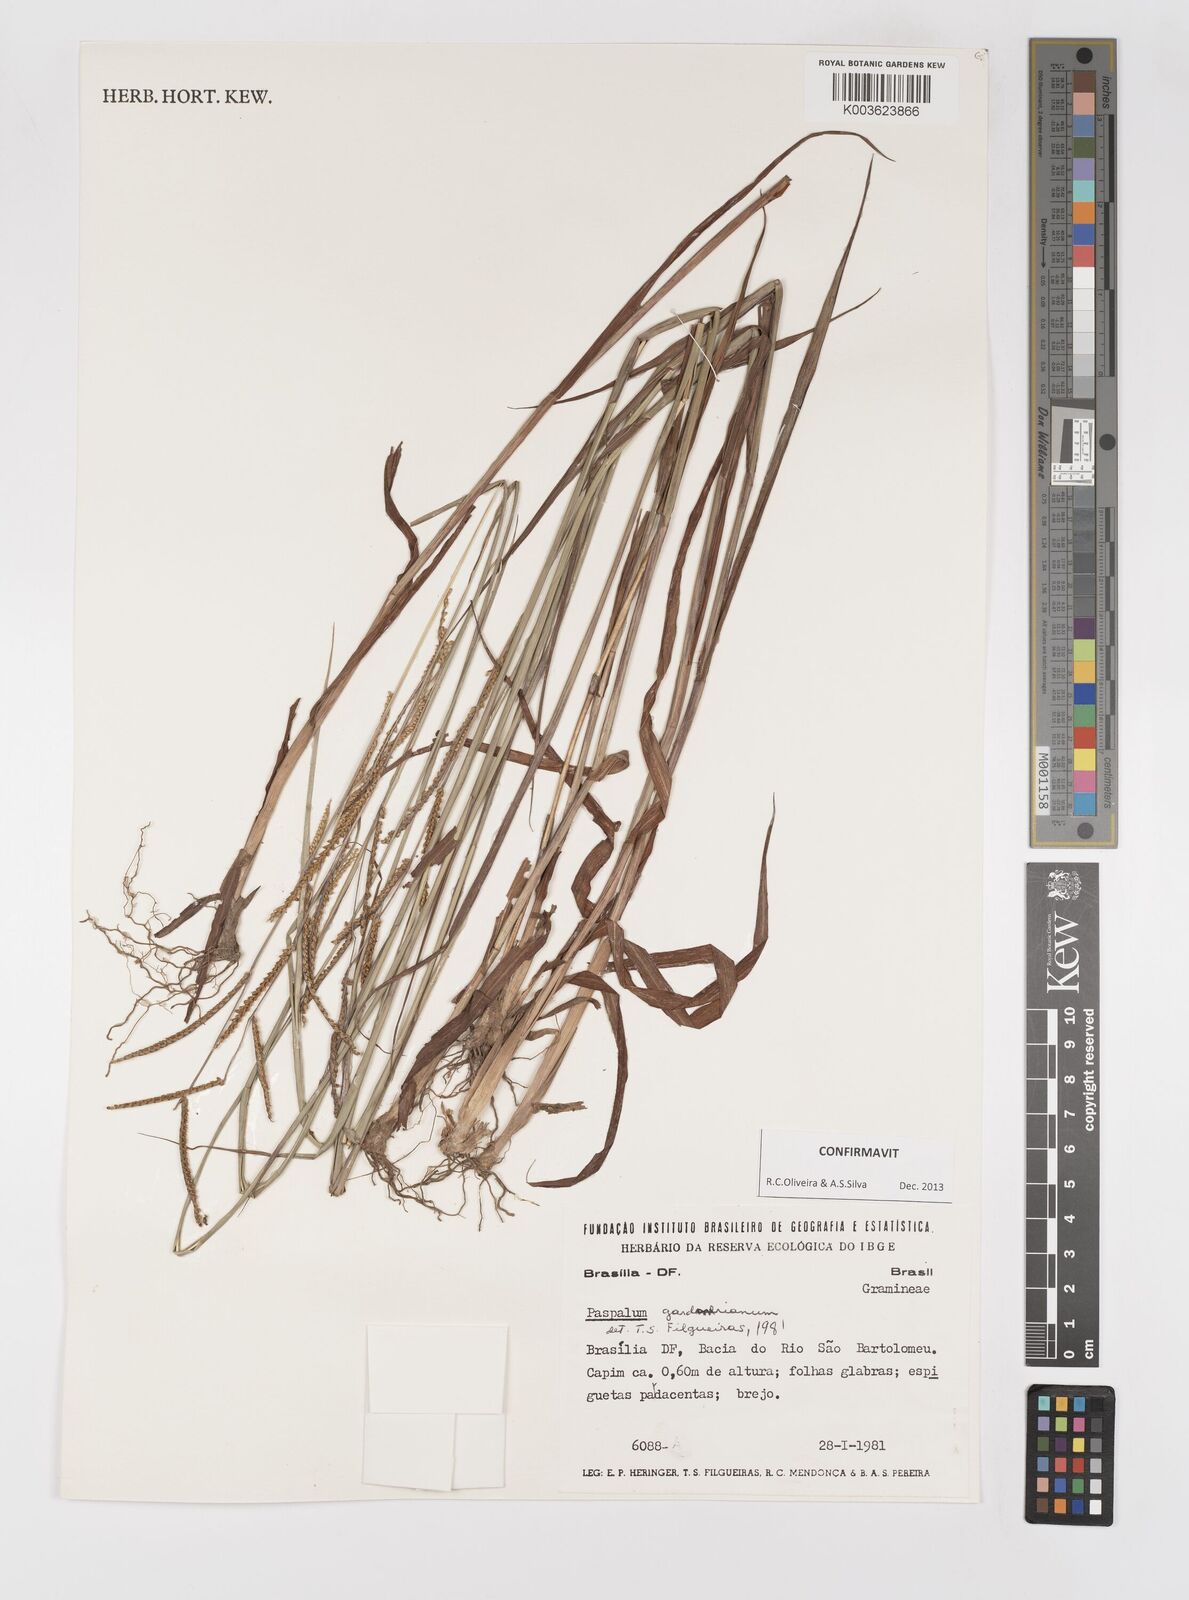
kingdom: Plantae
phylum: Tracheophyta
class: Liliopsida
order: Poales
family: Poaceae
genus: Paspalum
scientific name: Paspalum gardnerianum
